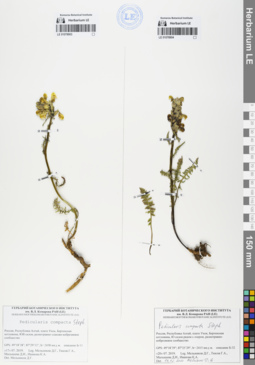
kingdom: Plantae
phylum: Tracheophyta
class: Magnoliopsida
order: Lamiales
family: Orobanchaceae
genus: Pedicularis
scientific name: Pedicularis compacta
